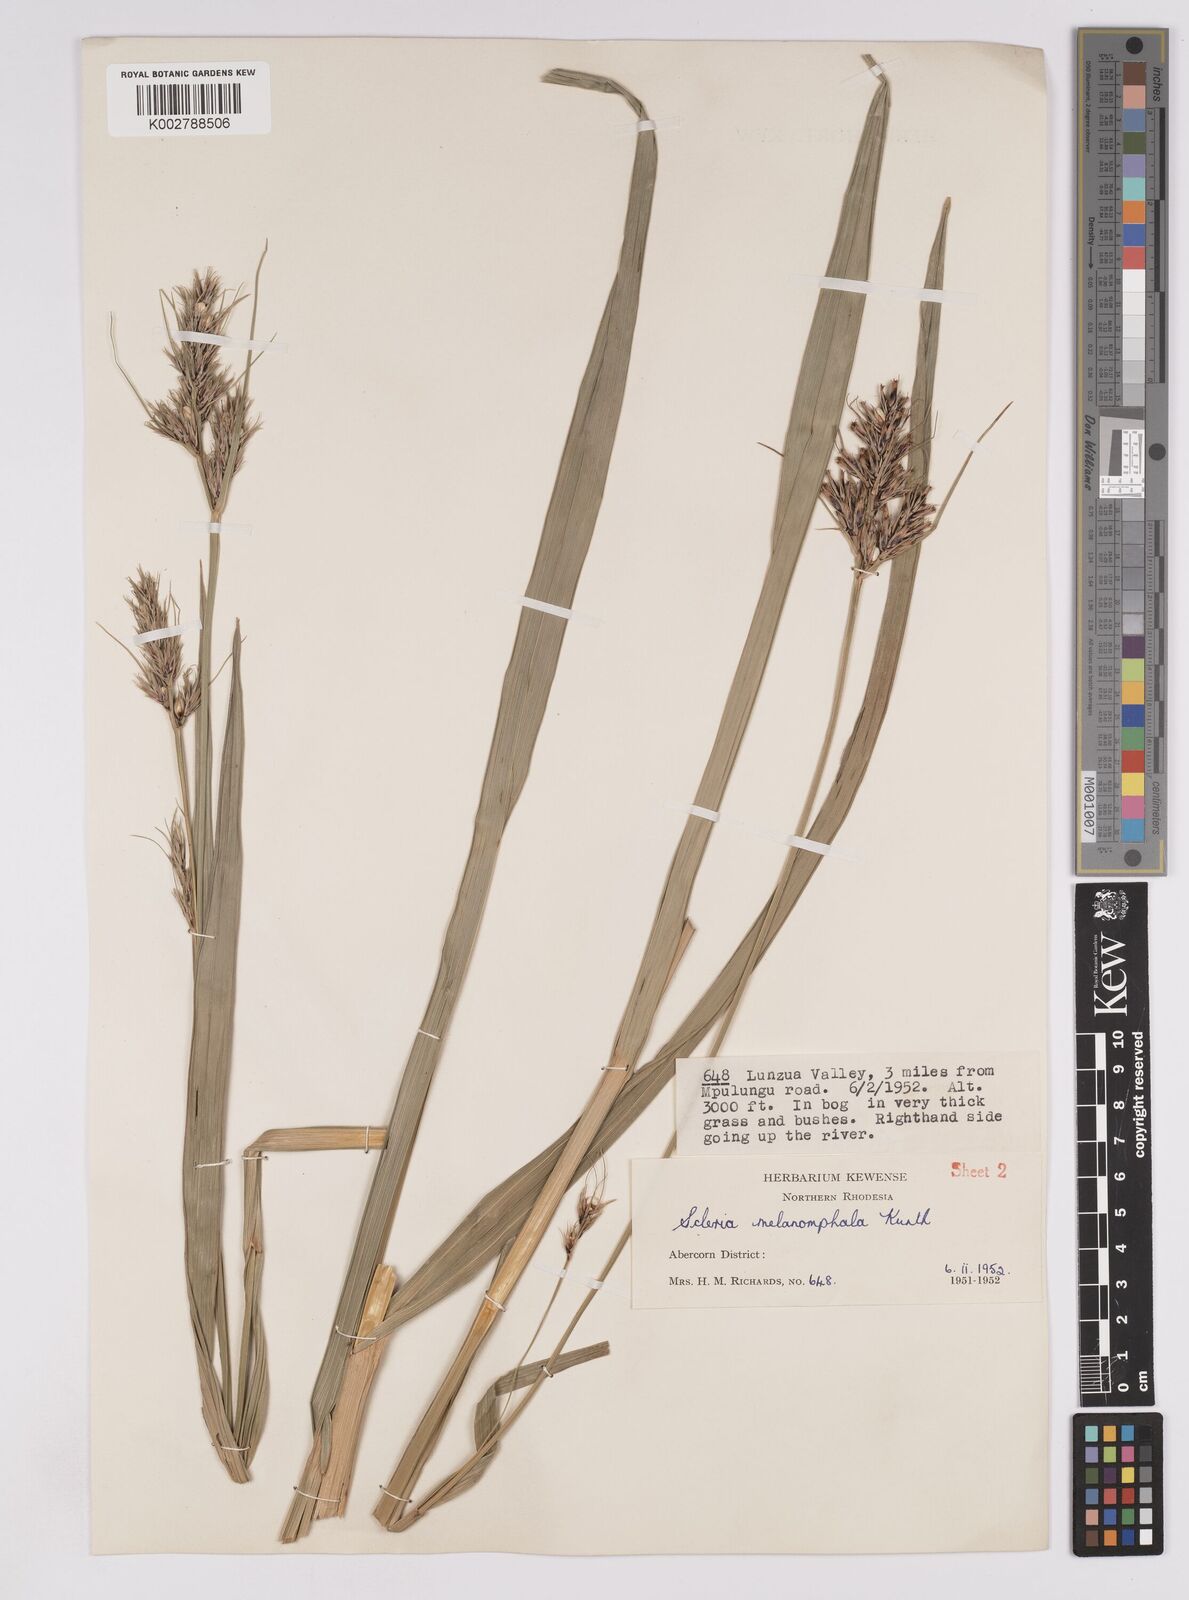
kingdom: Plantae
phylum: Tracheophyta
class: Liliopsida
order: Poales
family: Cyperaceae
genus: Scleria
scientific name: Scleria melanomphala
